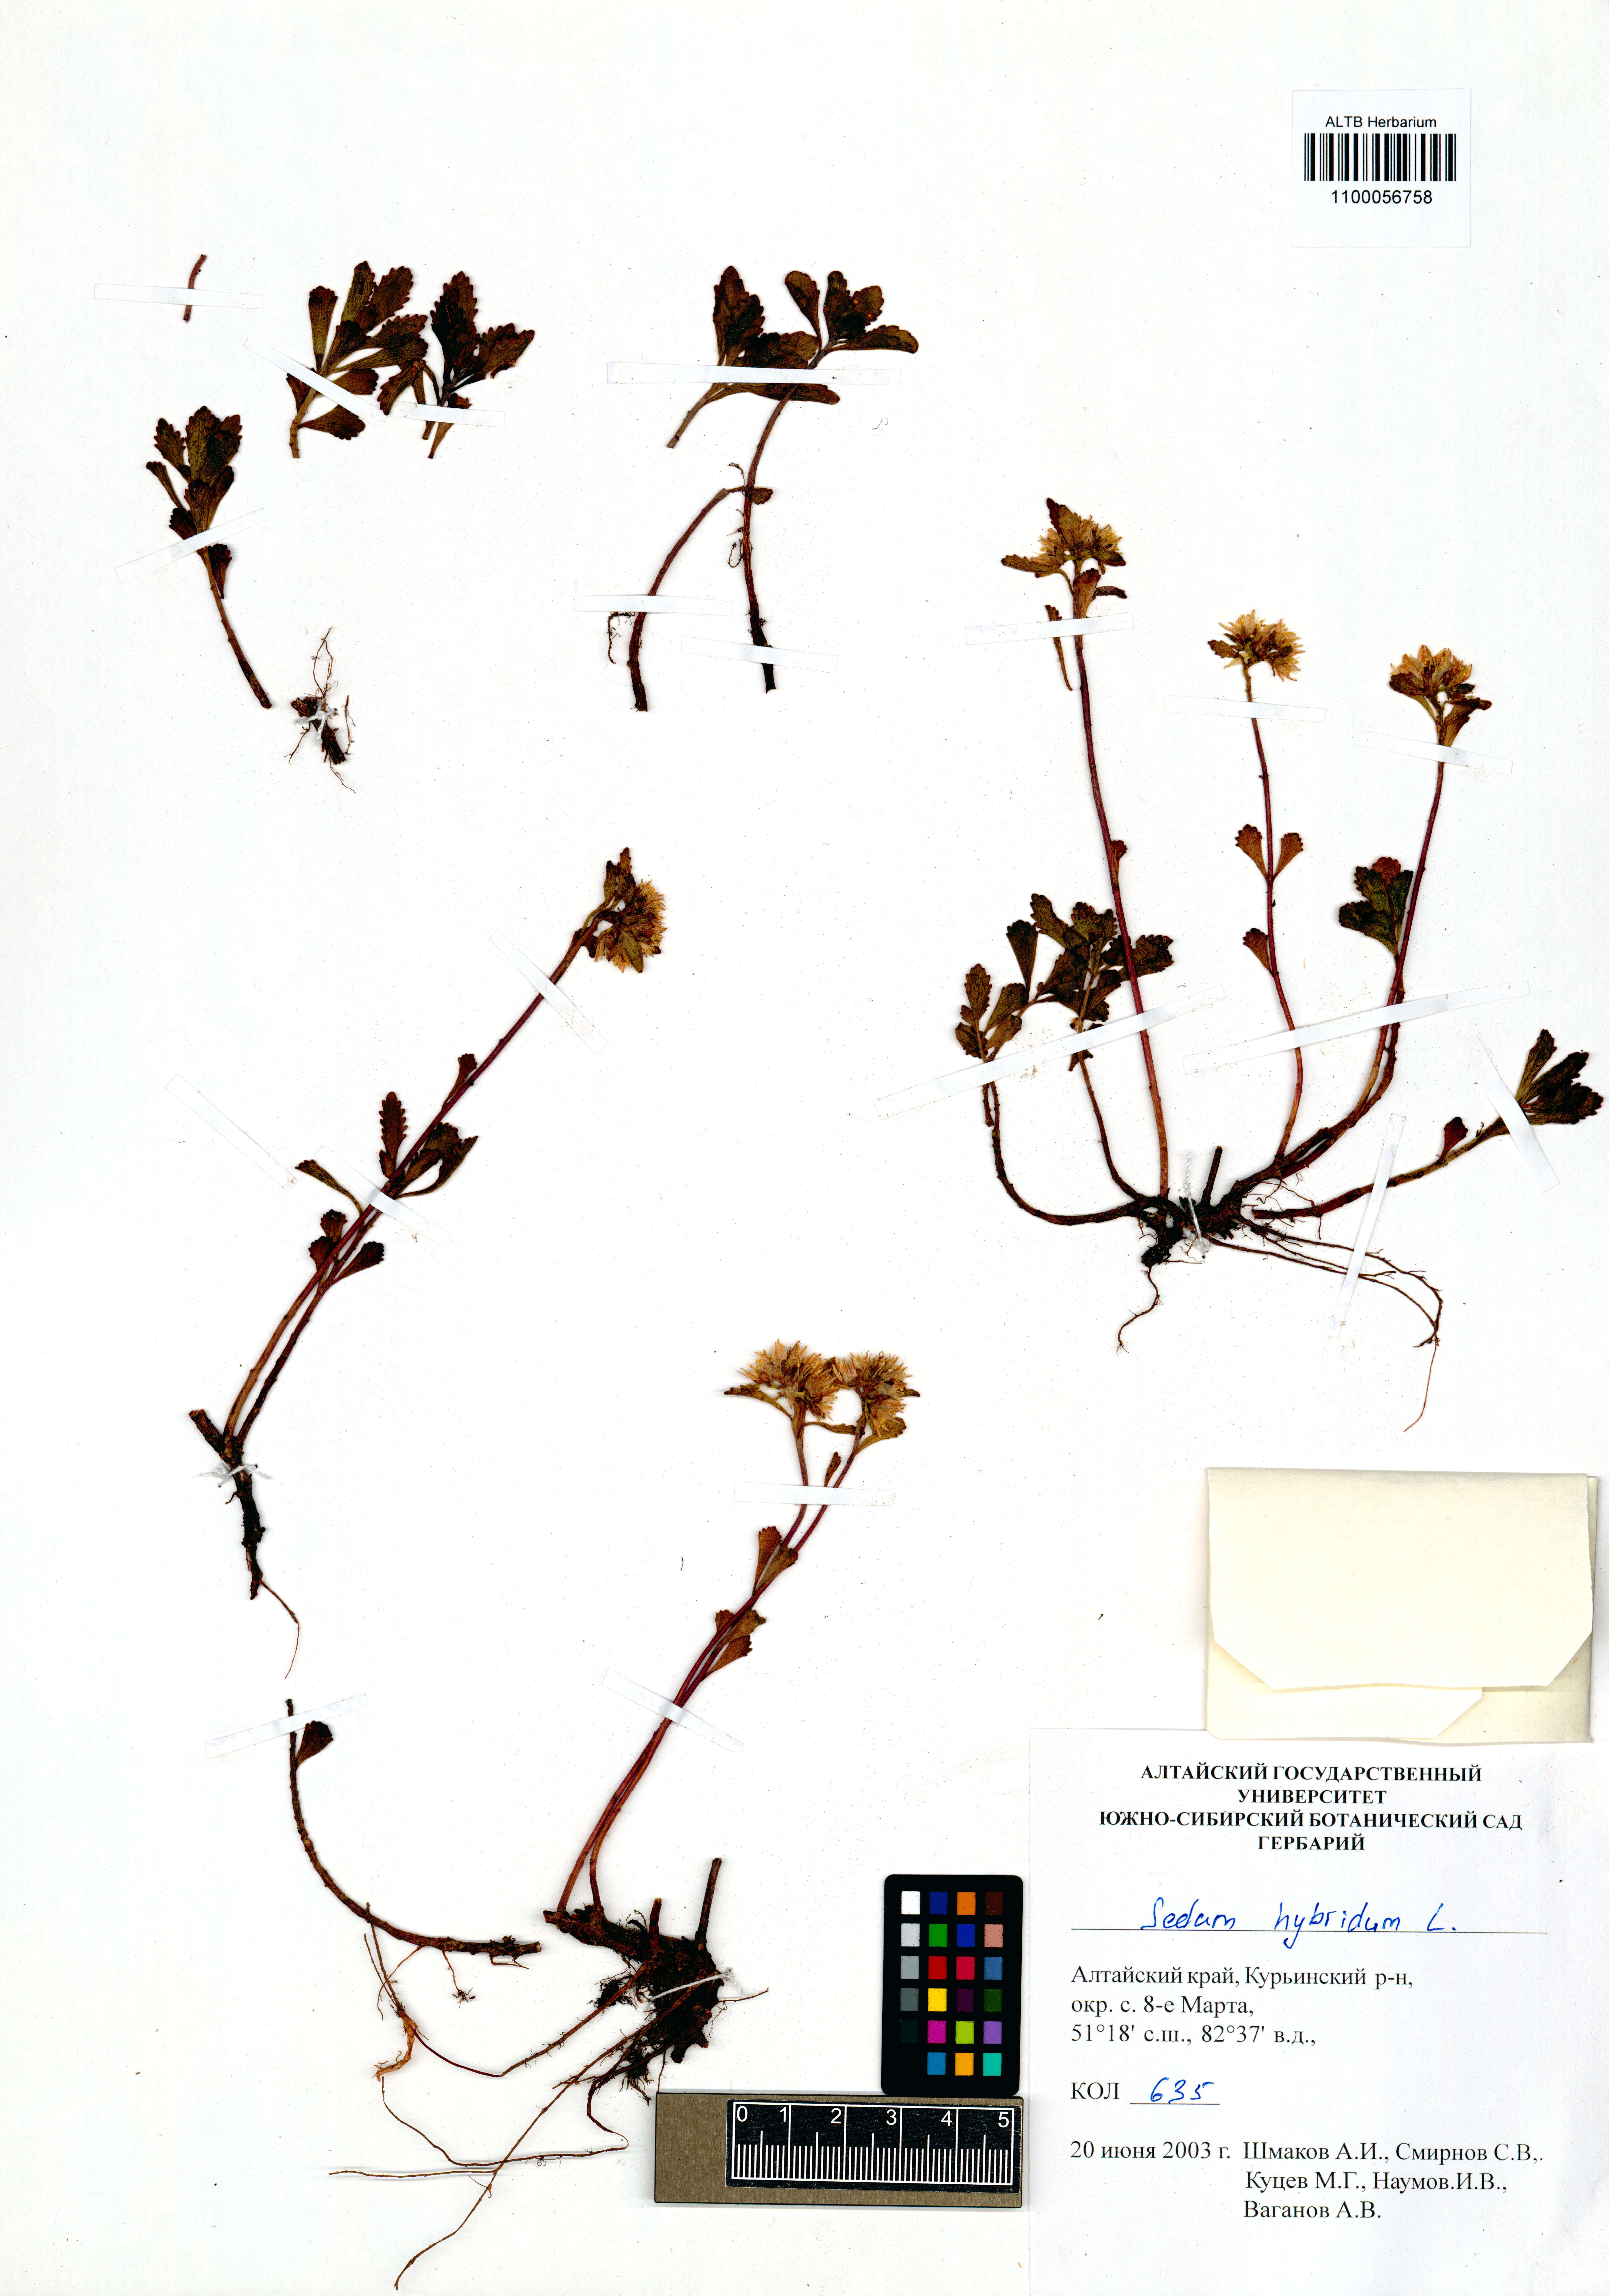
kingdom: Plantae
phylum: Tracheophyta
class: Magnoliopsida
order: Saxifragales
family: Crassulaceae
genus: Phedimus
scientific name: Phedimus hybridus
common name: Hybrid stonecrop
